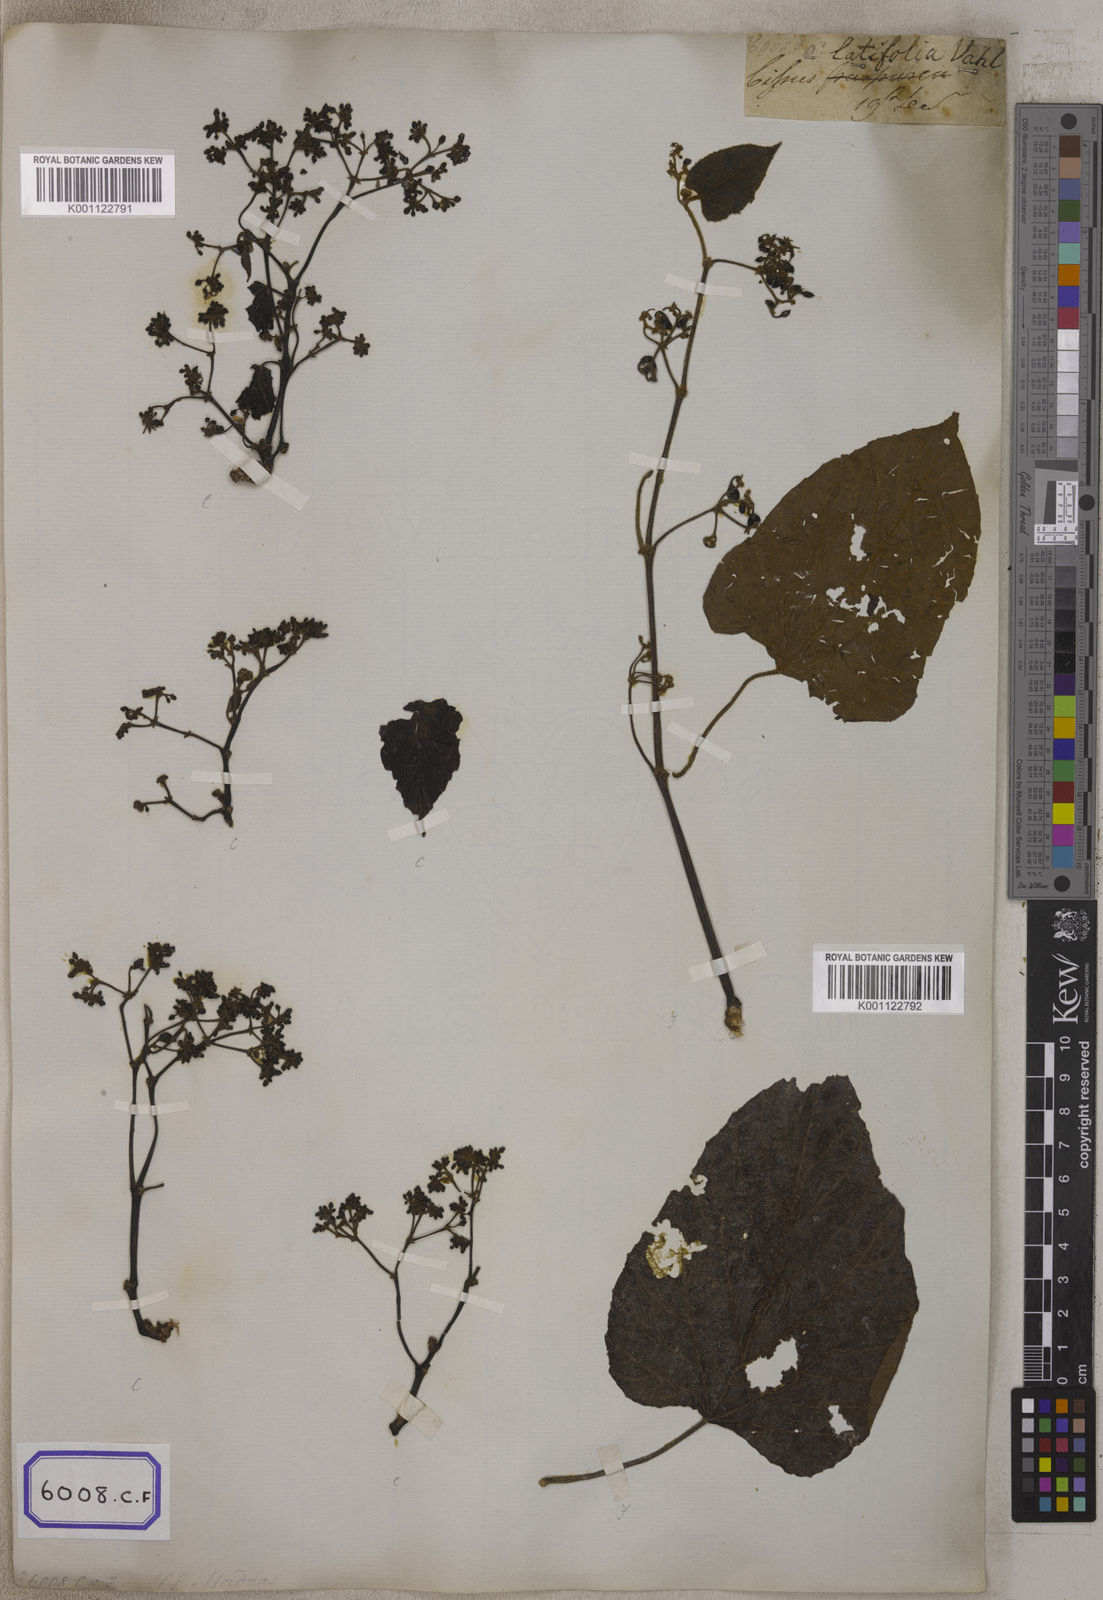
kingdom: Plantae
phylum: Tracheophyta
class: Magnoliopsida
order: Vitales
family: Vitaceae
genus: Cissus
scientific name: Cissus repens
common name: Cissus
